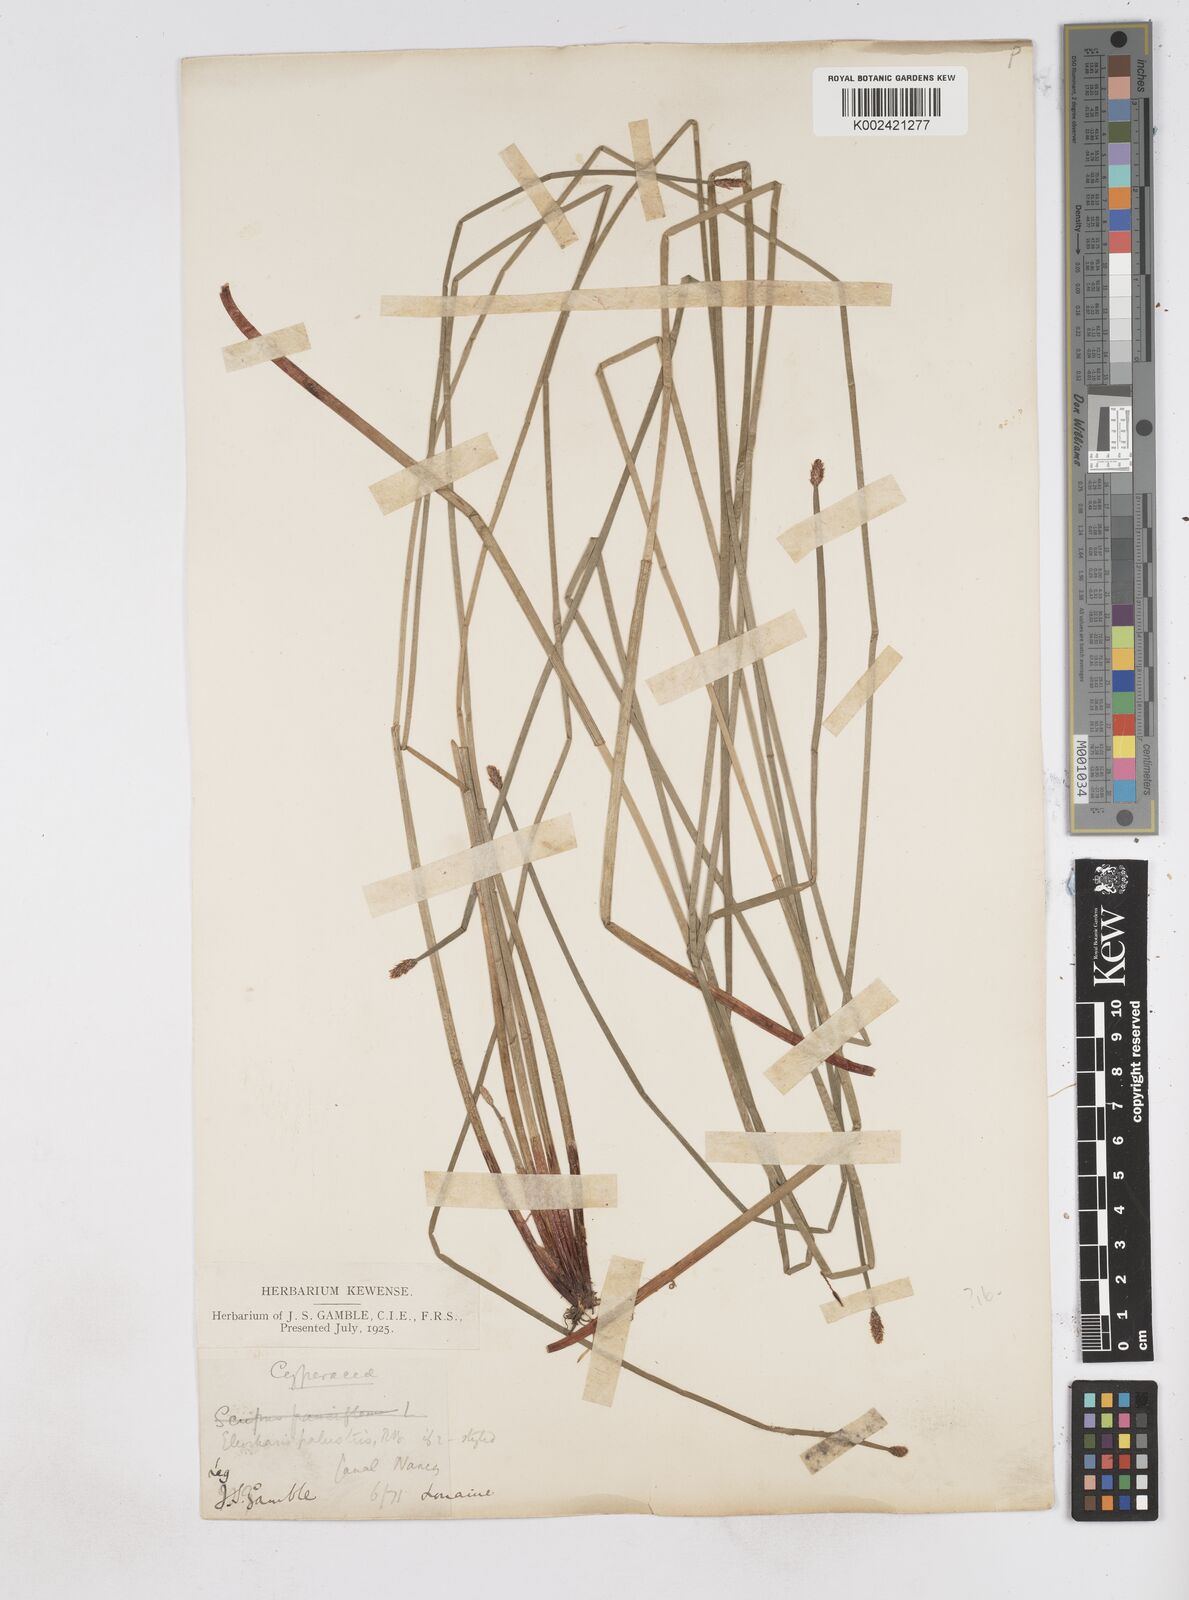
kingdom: Plantae
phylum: Tracheophyta
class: Liliopsida
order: Poales
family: Cyperaceae
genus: Eleocharis
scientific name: Eleocharis palustris
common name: Common spike-rush
